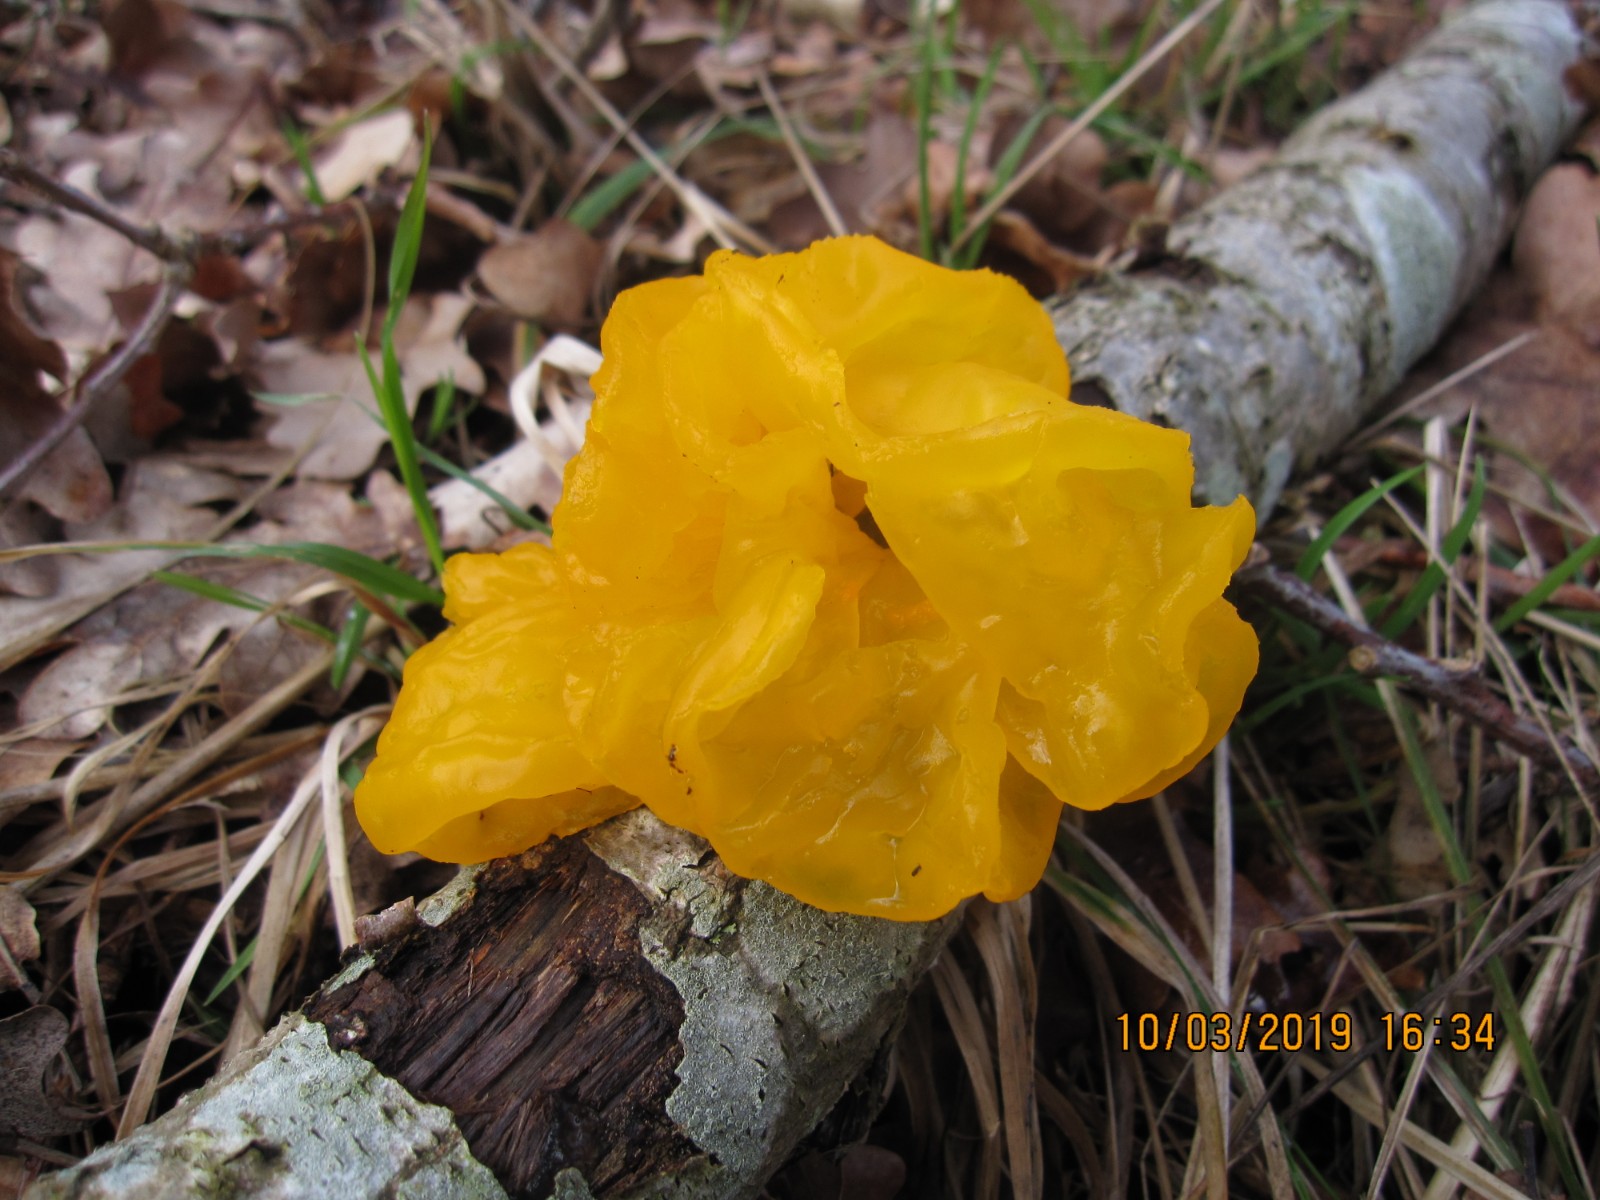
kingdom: Fungi
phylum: Basidiomycota
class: Tremellomycetes
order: Tremellales
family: Tremellaceae
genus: Tremella
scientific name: Tremella mesenterica
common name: gul bævresvamp
